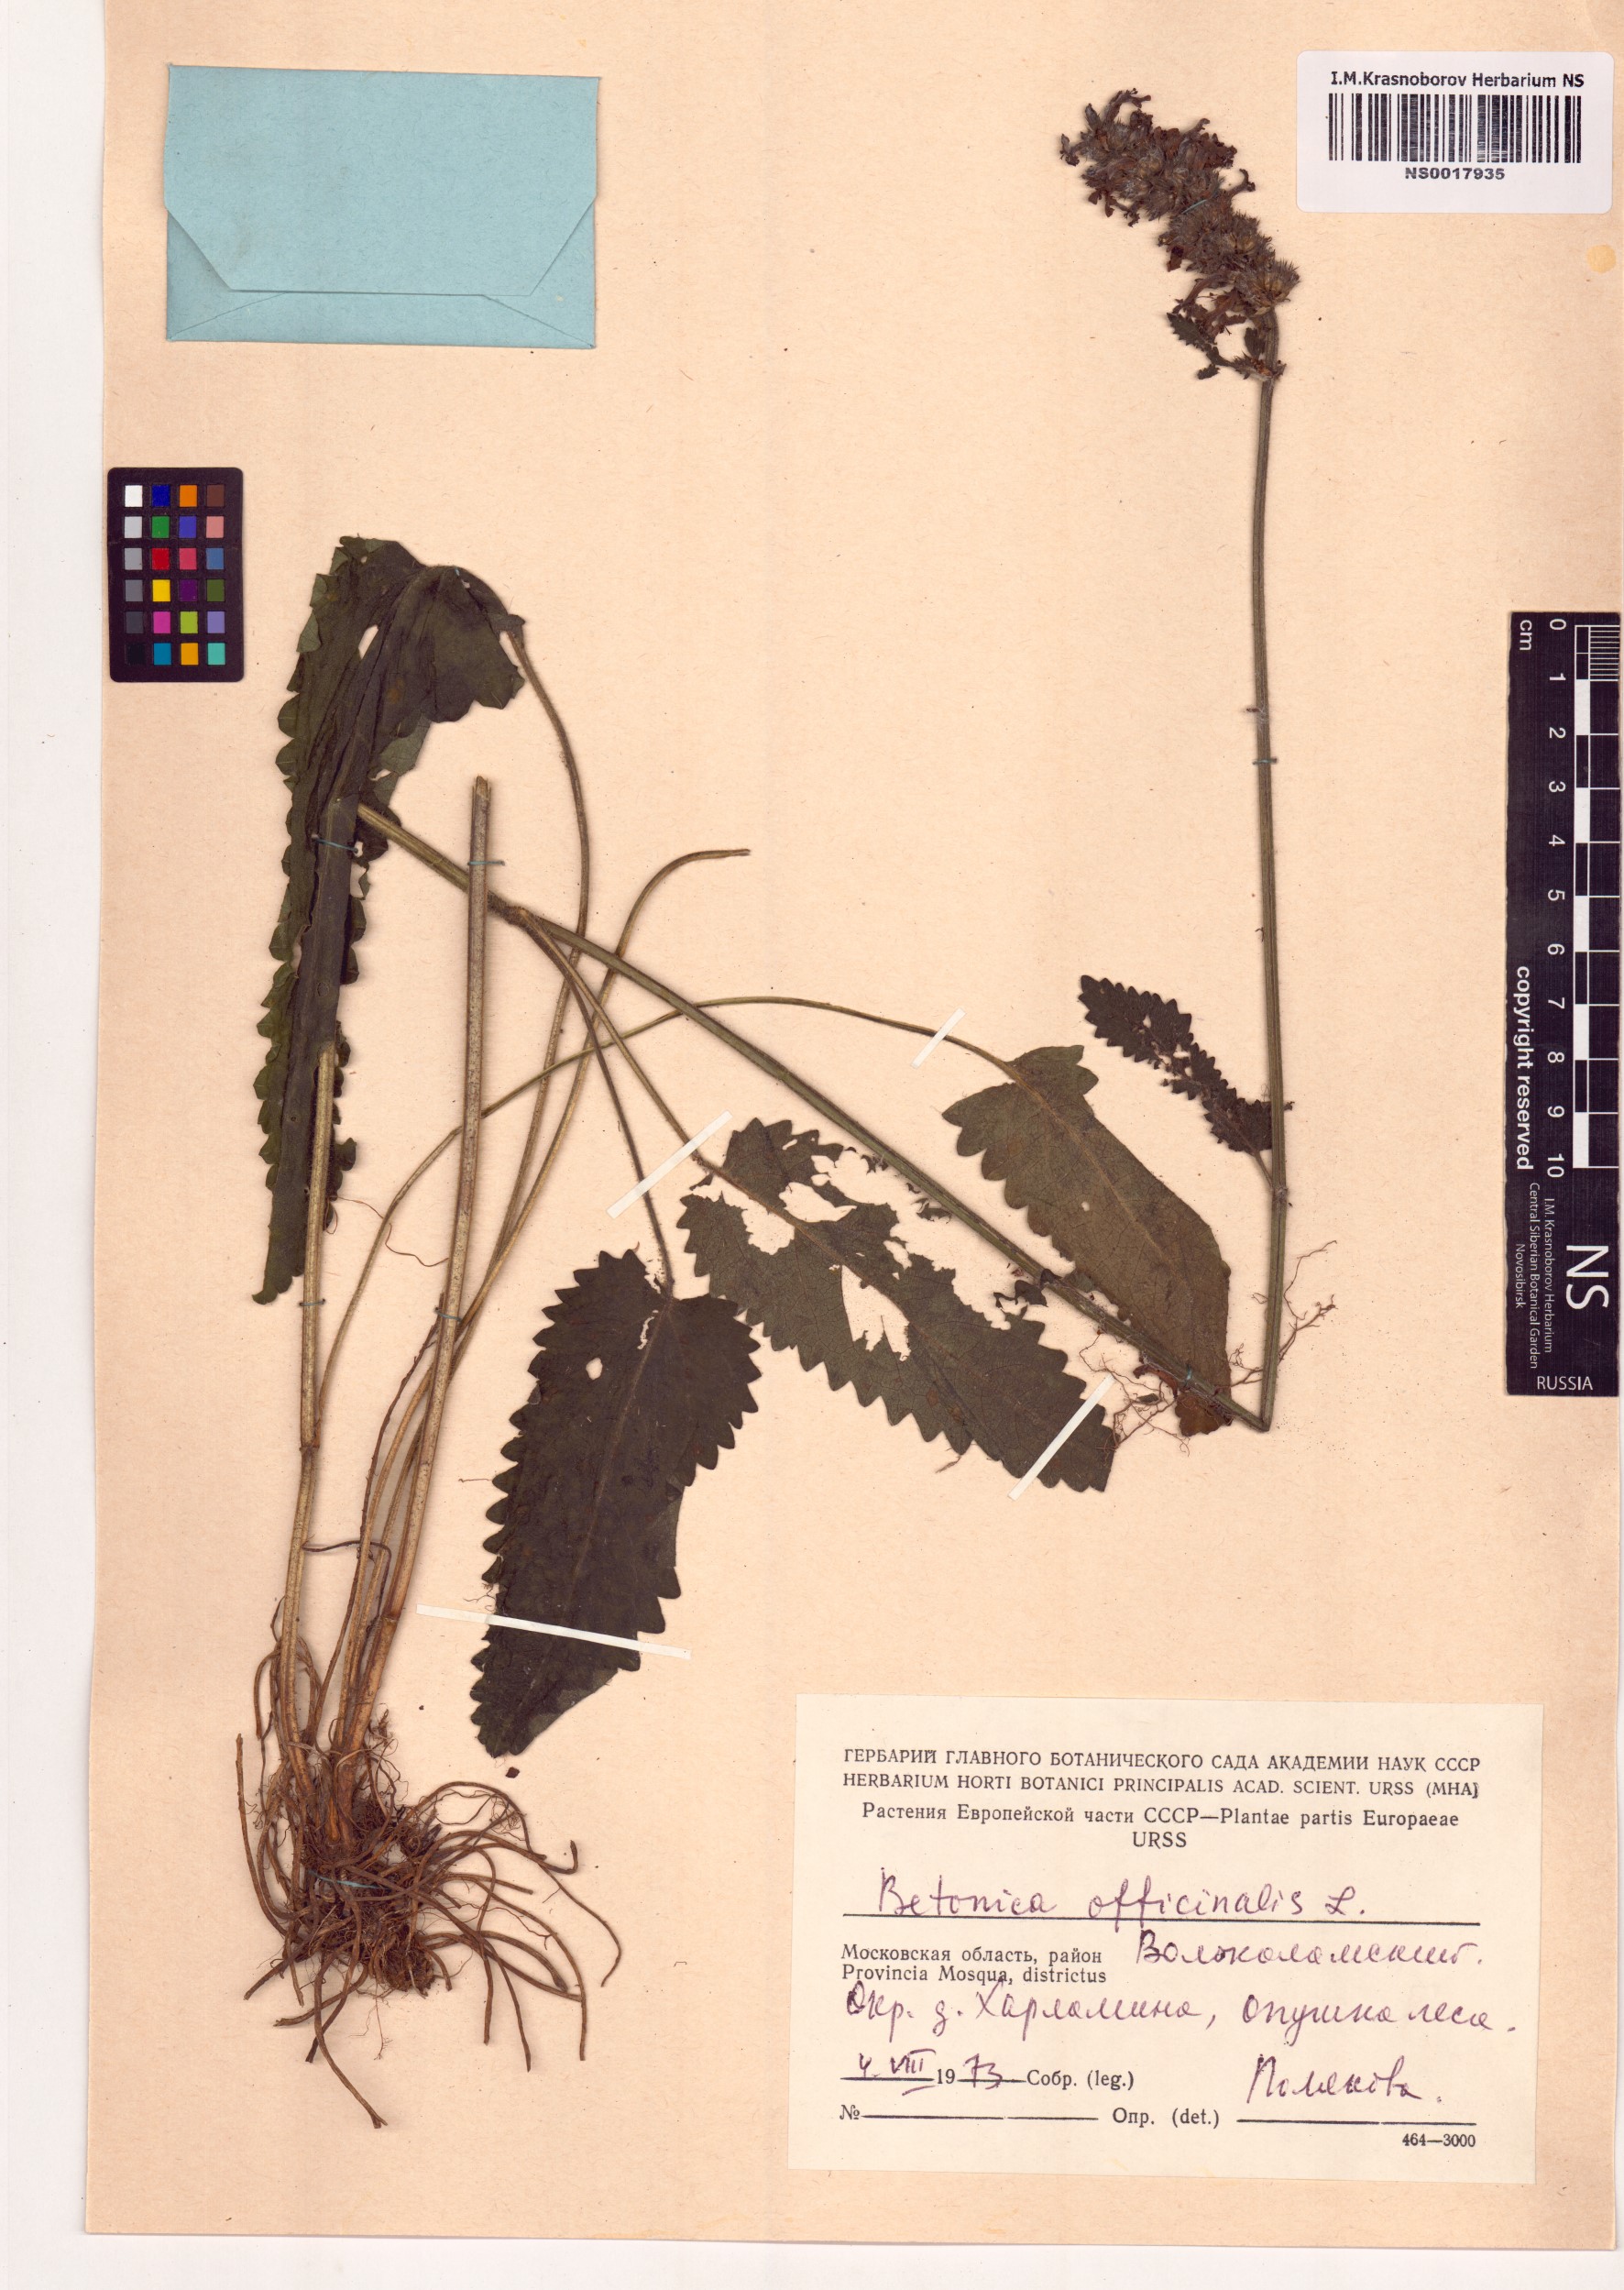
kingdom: Plantae
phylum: Tracheophyta
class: Magnoliopsida
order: Lamiales
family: Lamiaceae
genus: Betonica
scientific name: Betonica officinalis
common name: Bishop's-wort
